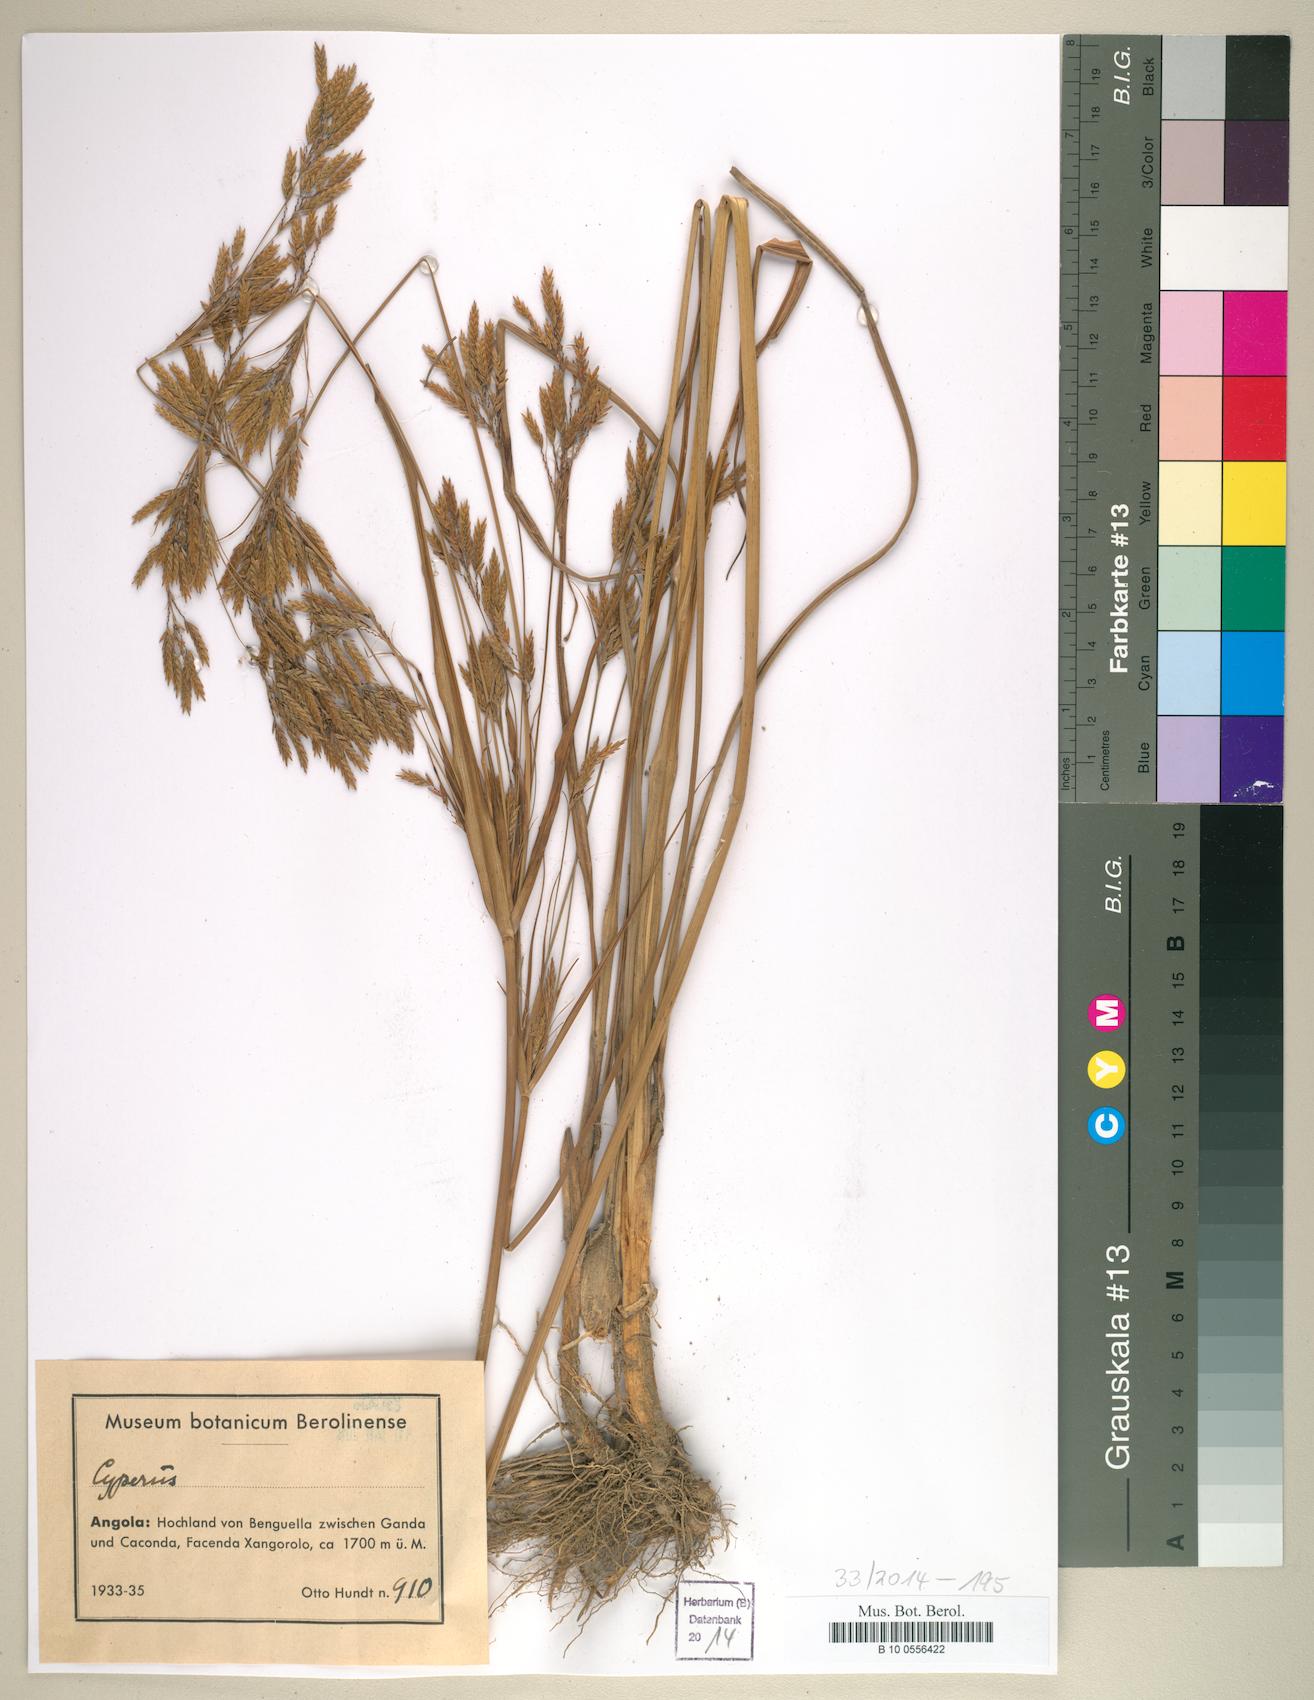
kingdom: Plantae
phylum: Tracheophyta
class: Liliopsida
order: Poales
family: Cyperaceae
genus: Cyperus
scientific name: Cyperus
